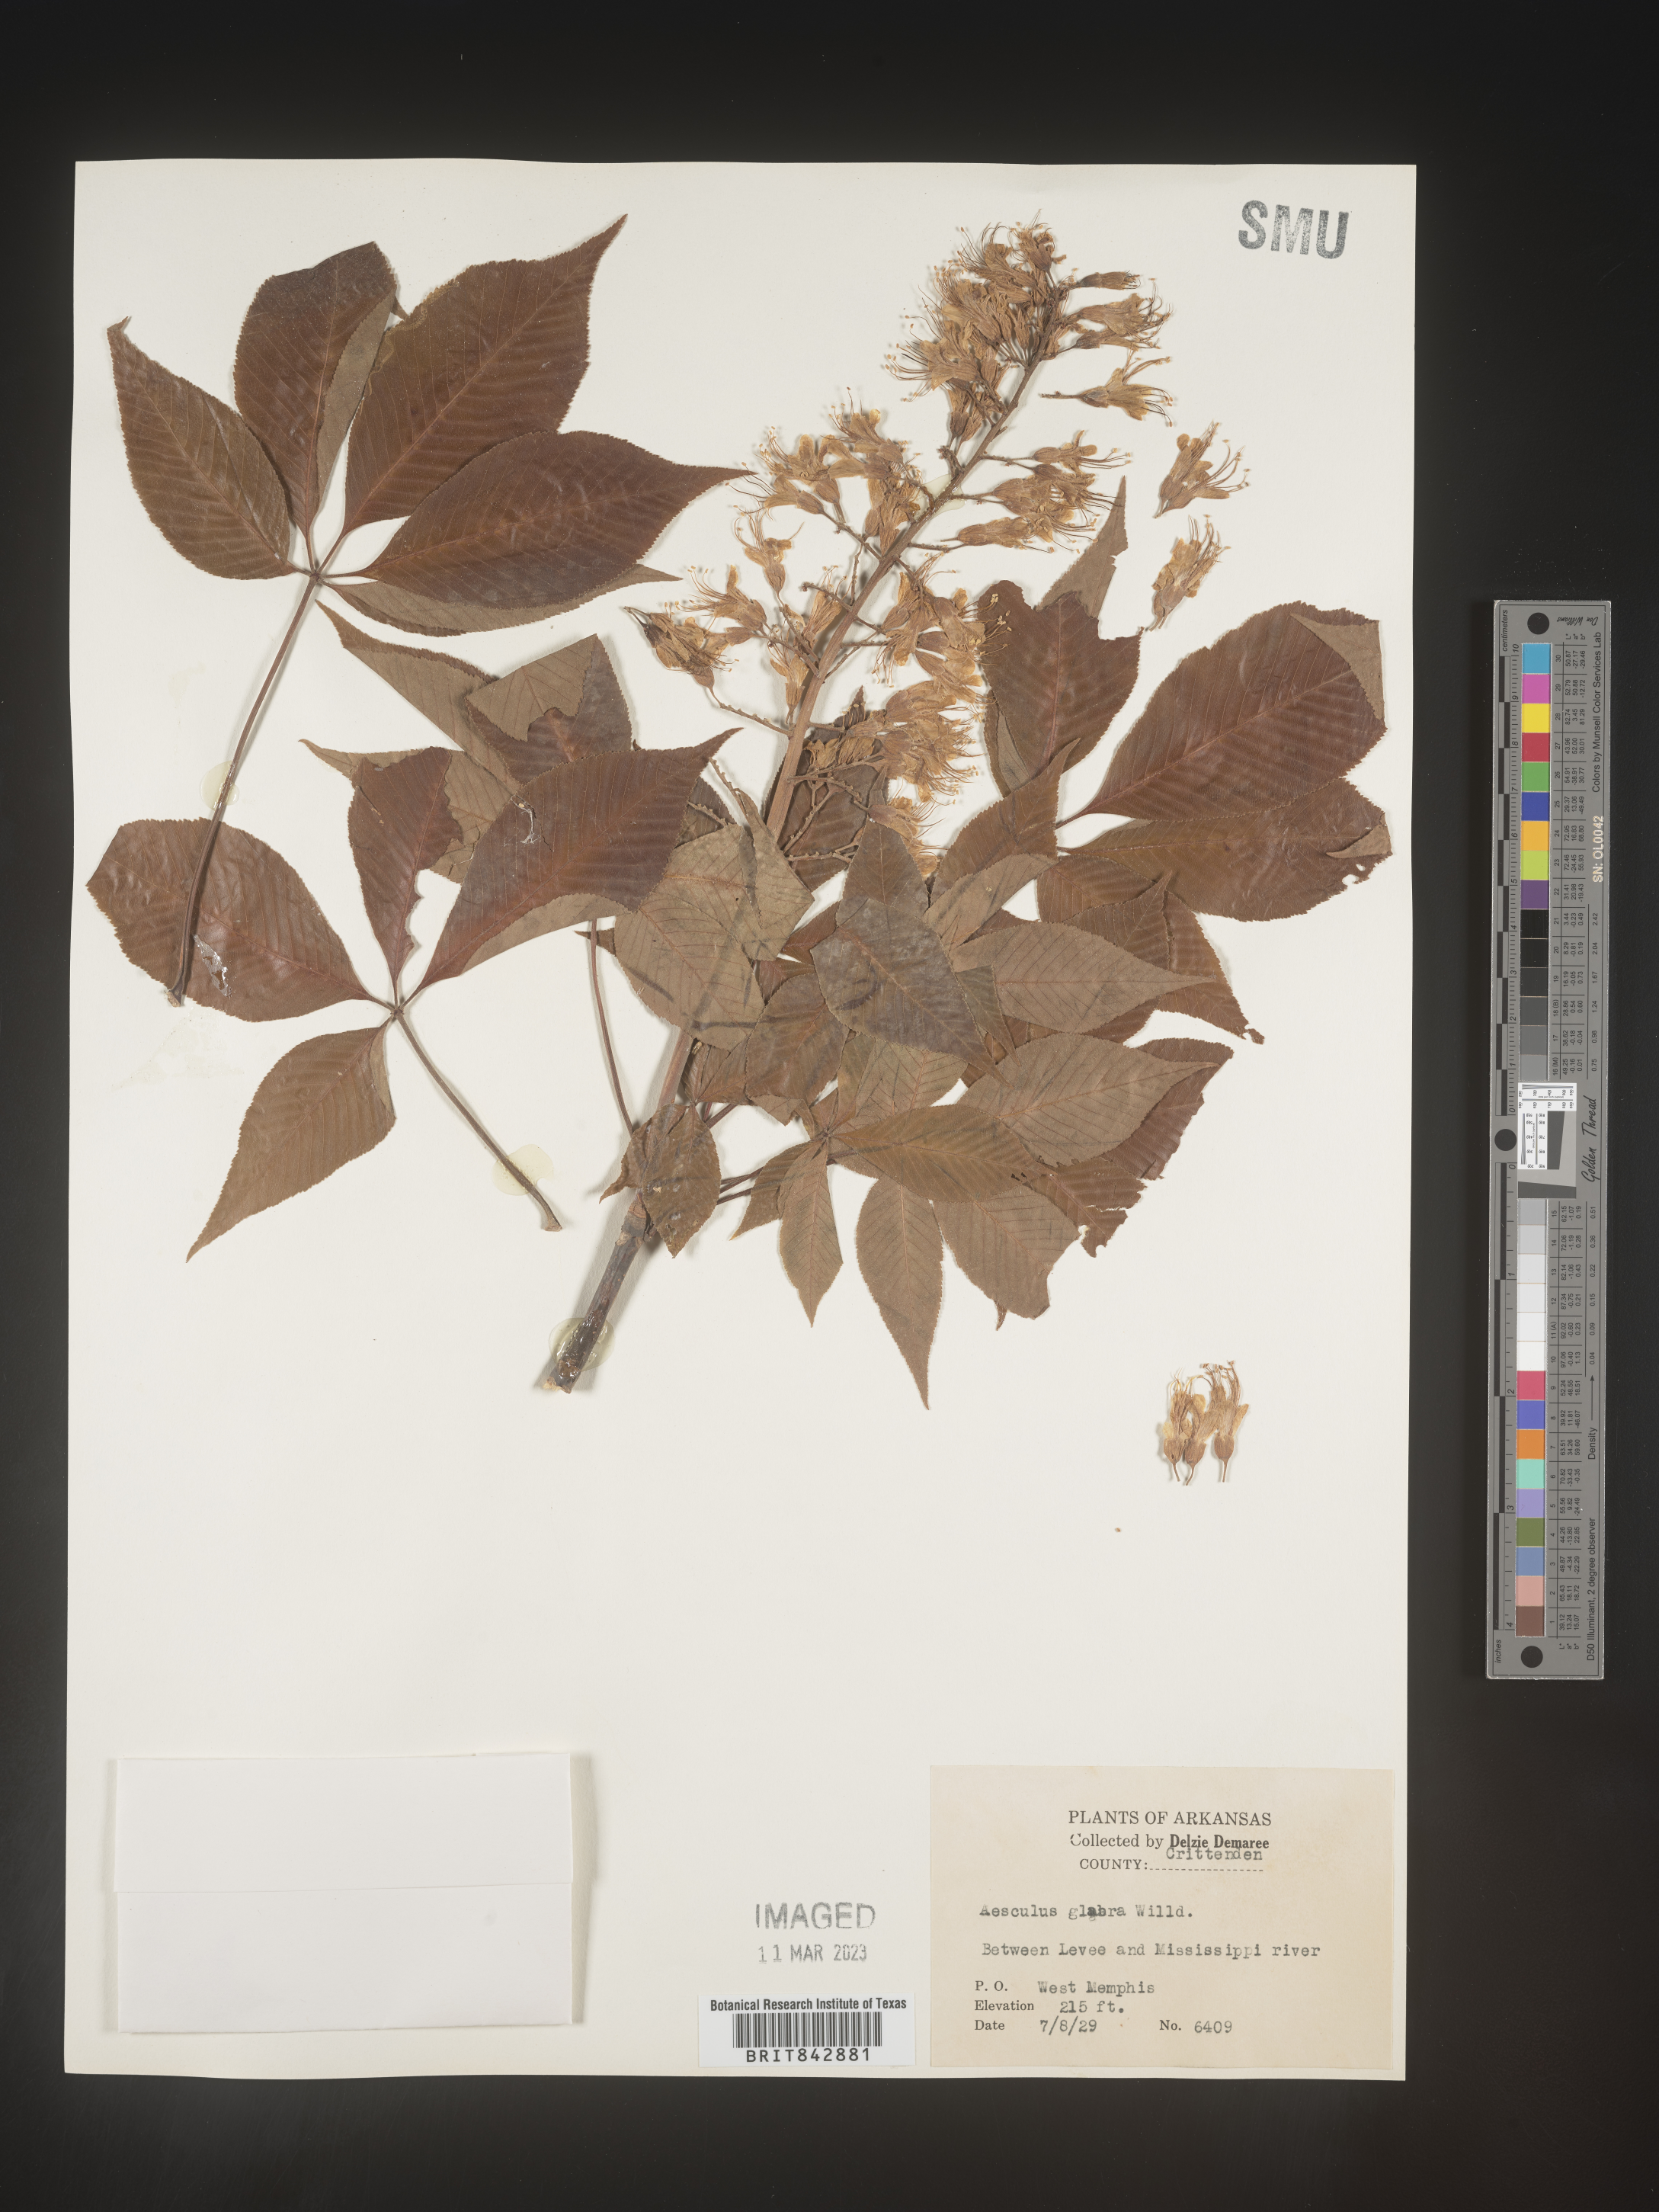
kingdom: Plantae
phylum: Tracheophyta
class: Magnoliopsida
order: Sapindales
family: Sapindaceae
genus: Aesculus
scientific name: Aesculus glabra
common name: Ohio buckeye
